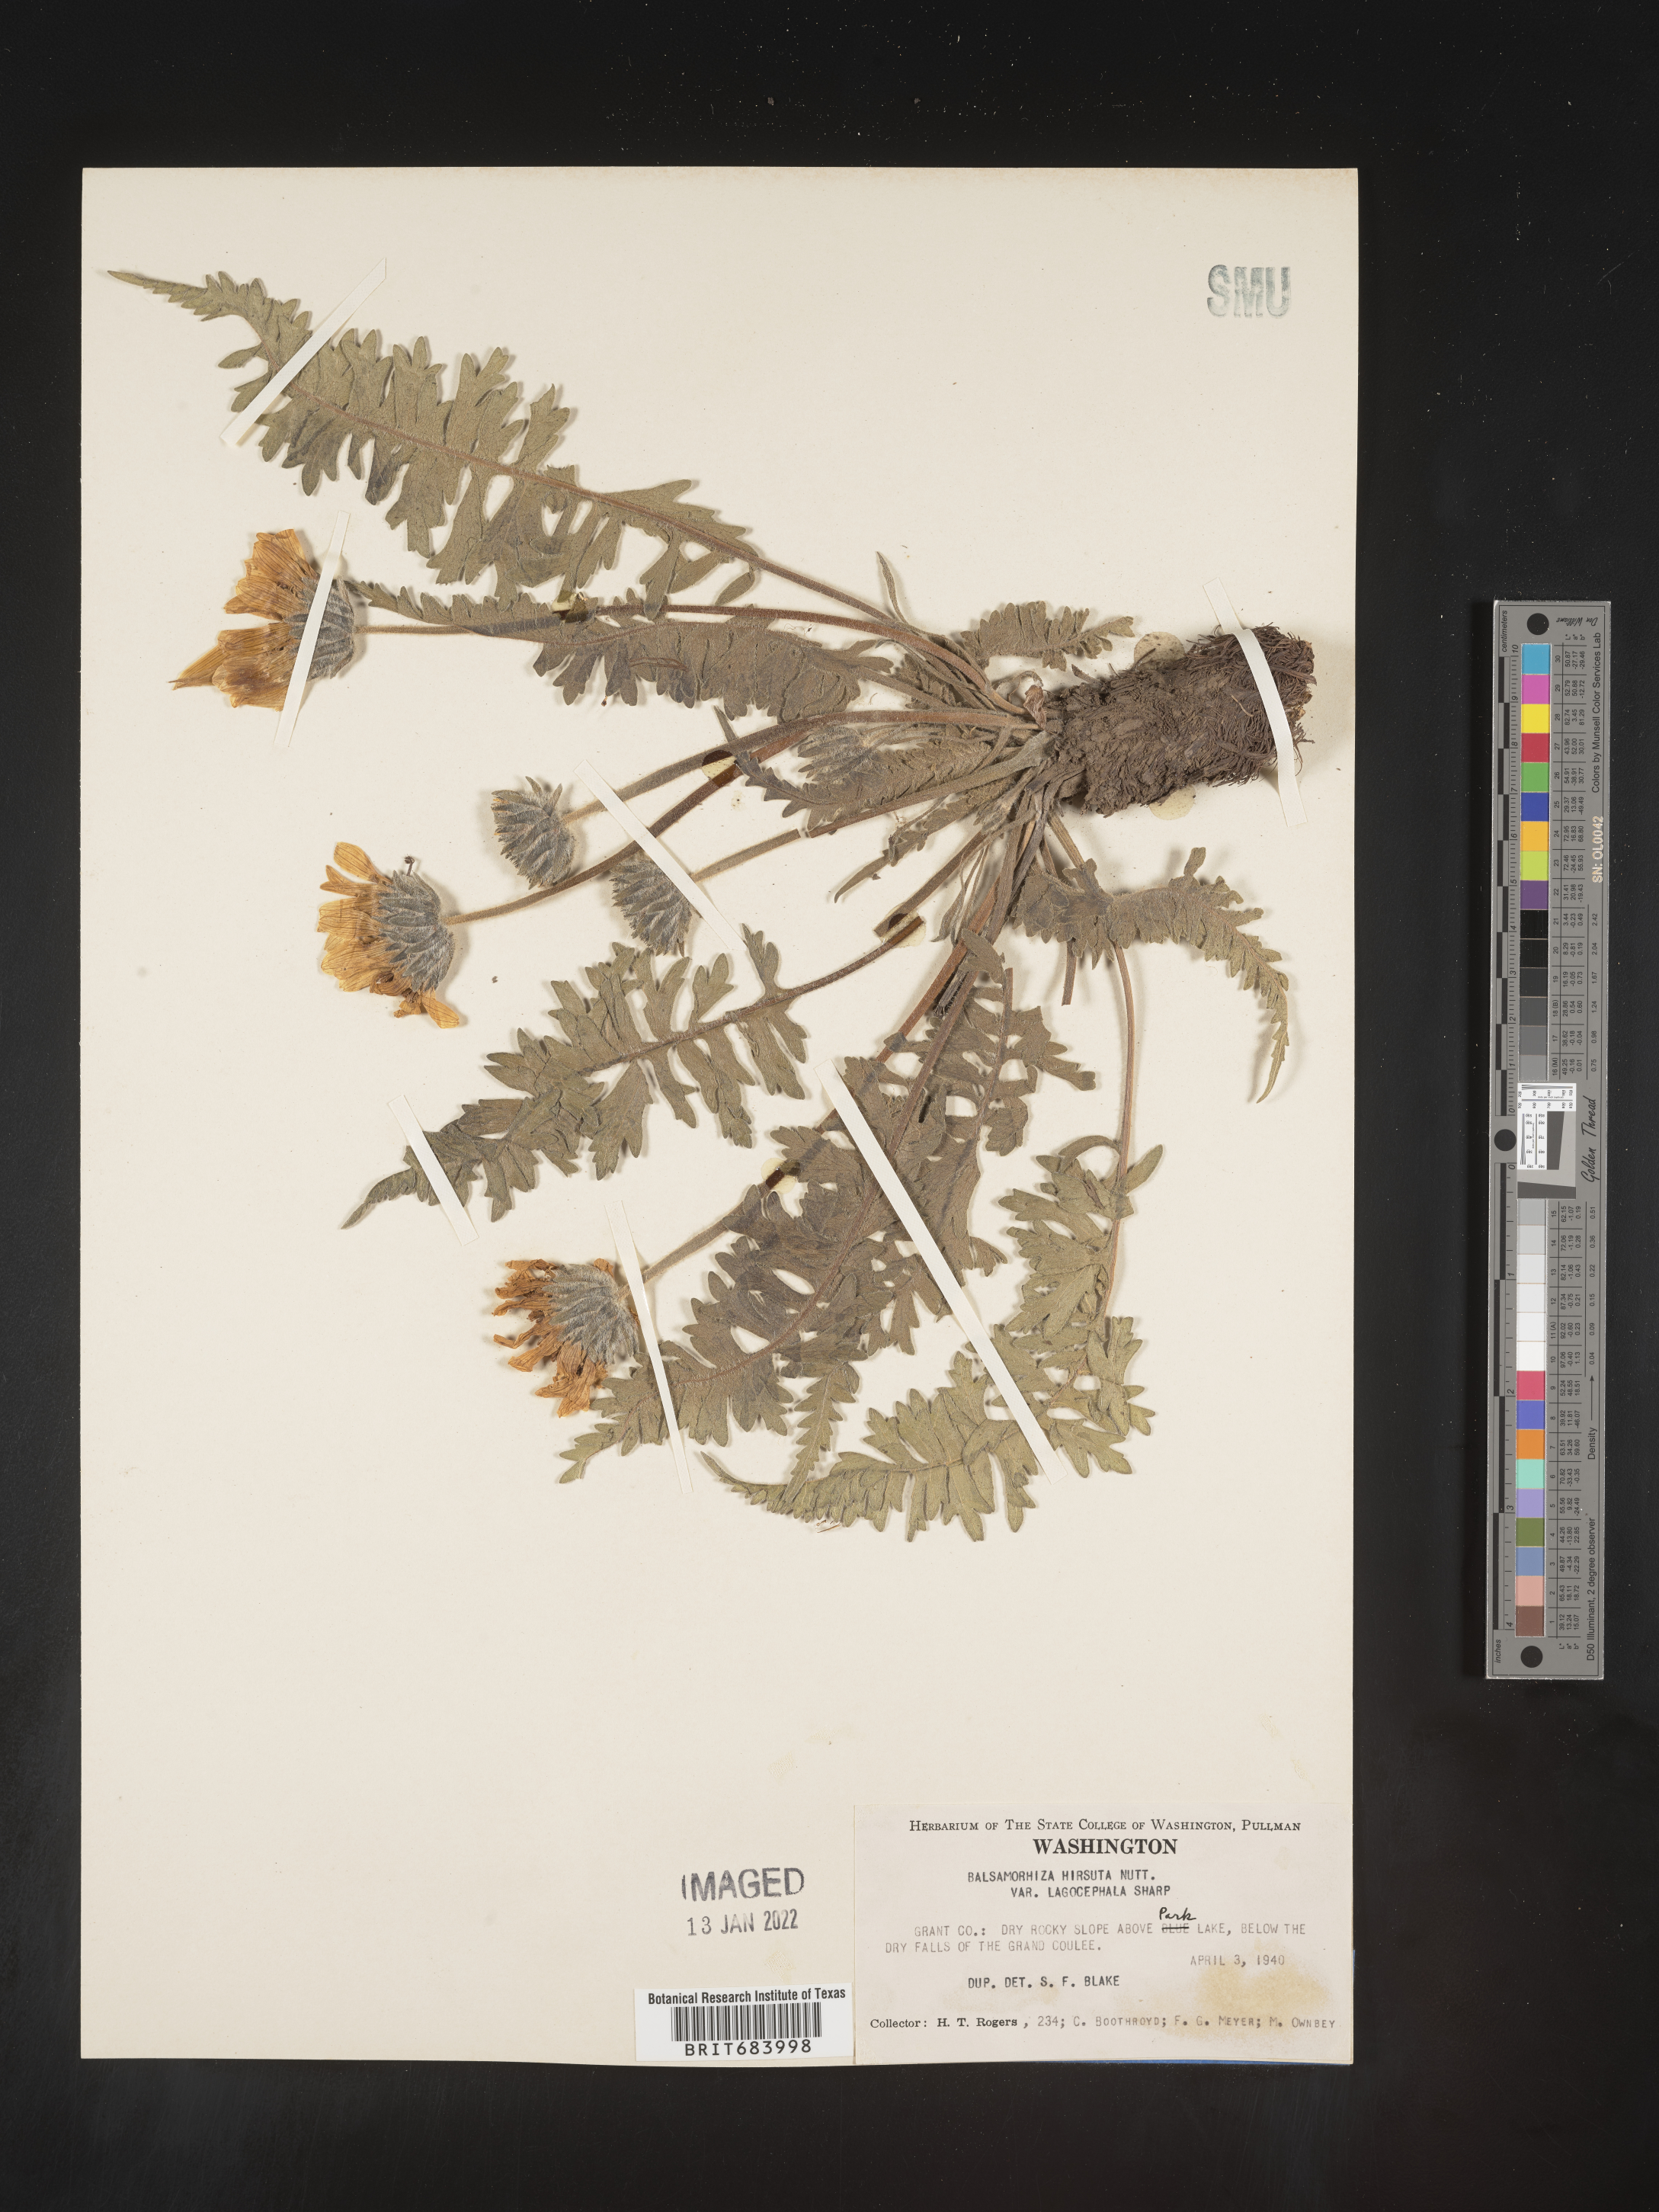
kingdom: Plantae
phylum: Tracheophyta
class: Magnoliopsida
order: Asterales
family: Asteraceae
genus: Balsamorhiza
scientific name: Balsamorhiza hookeri
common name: Hooker's balsamroot
